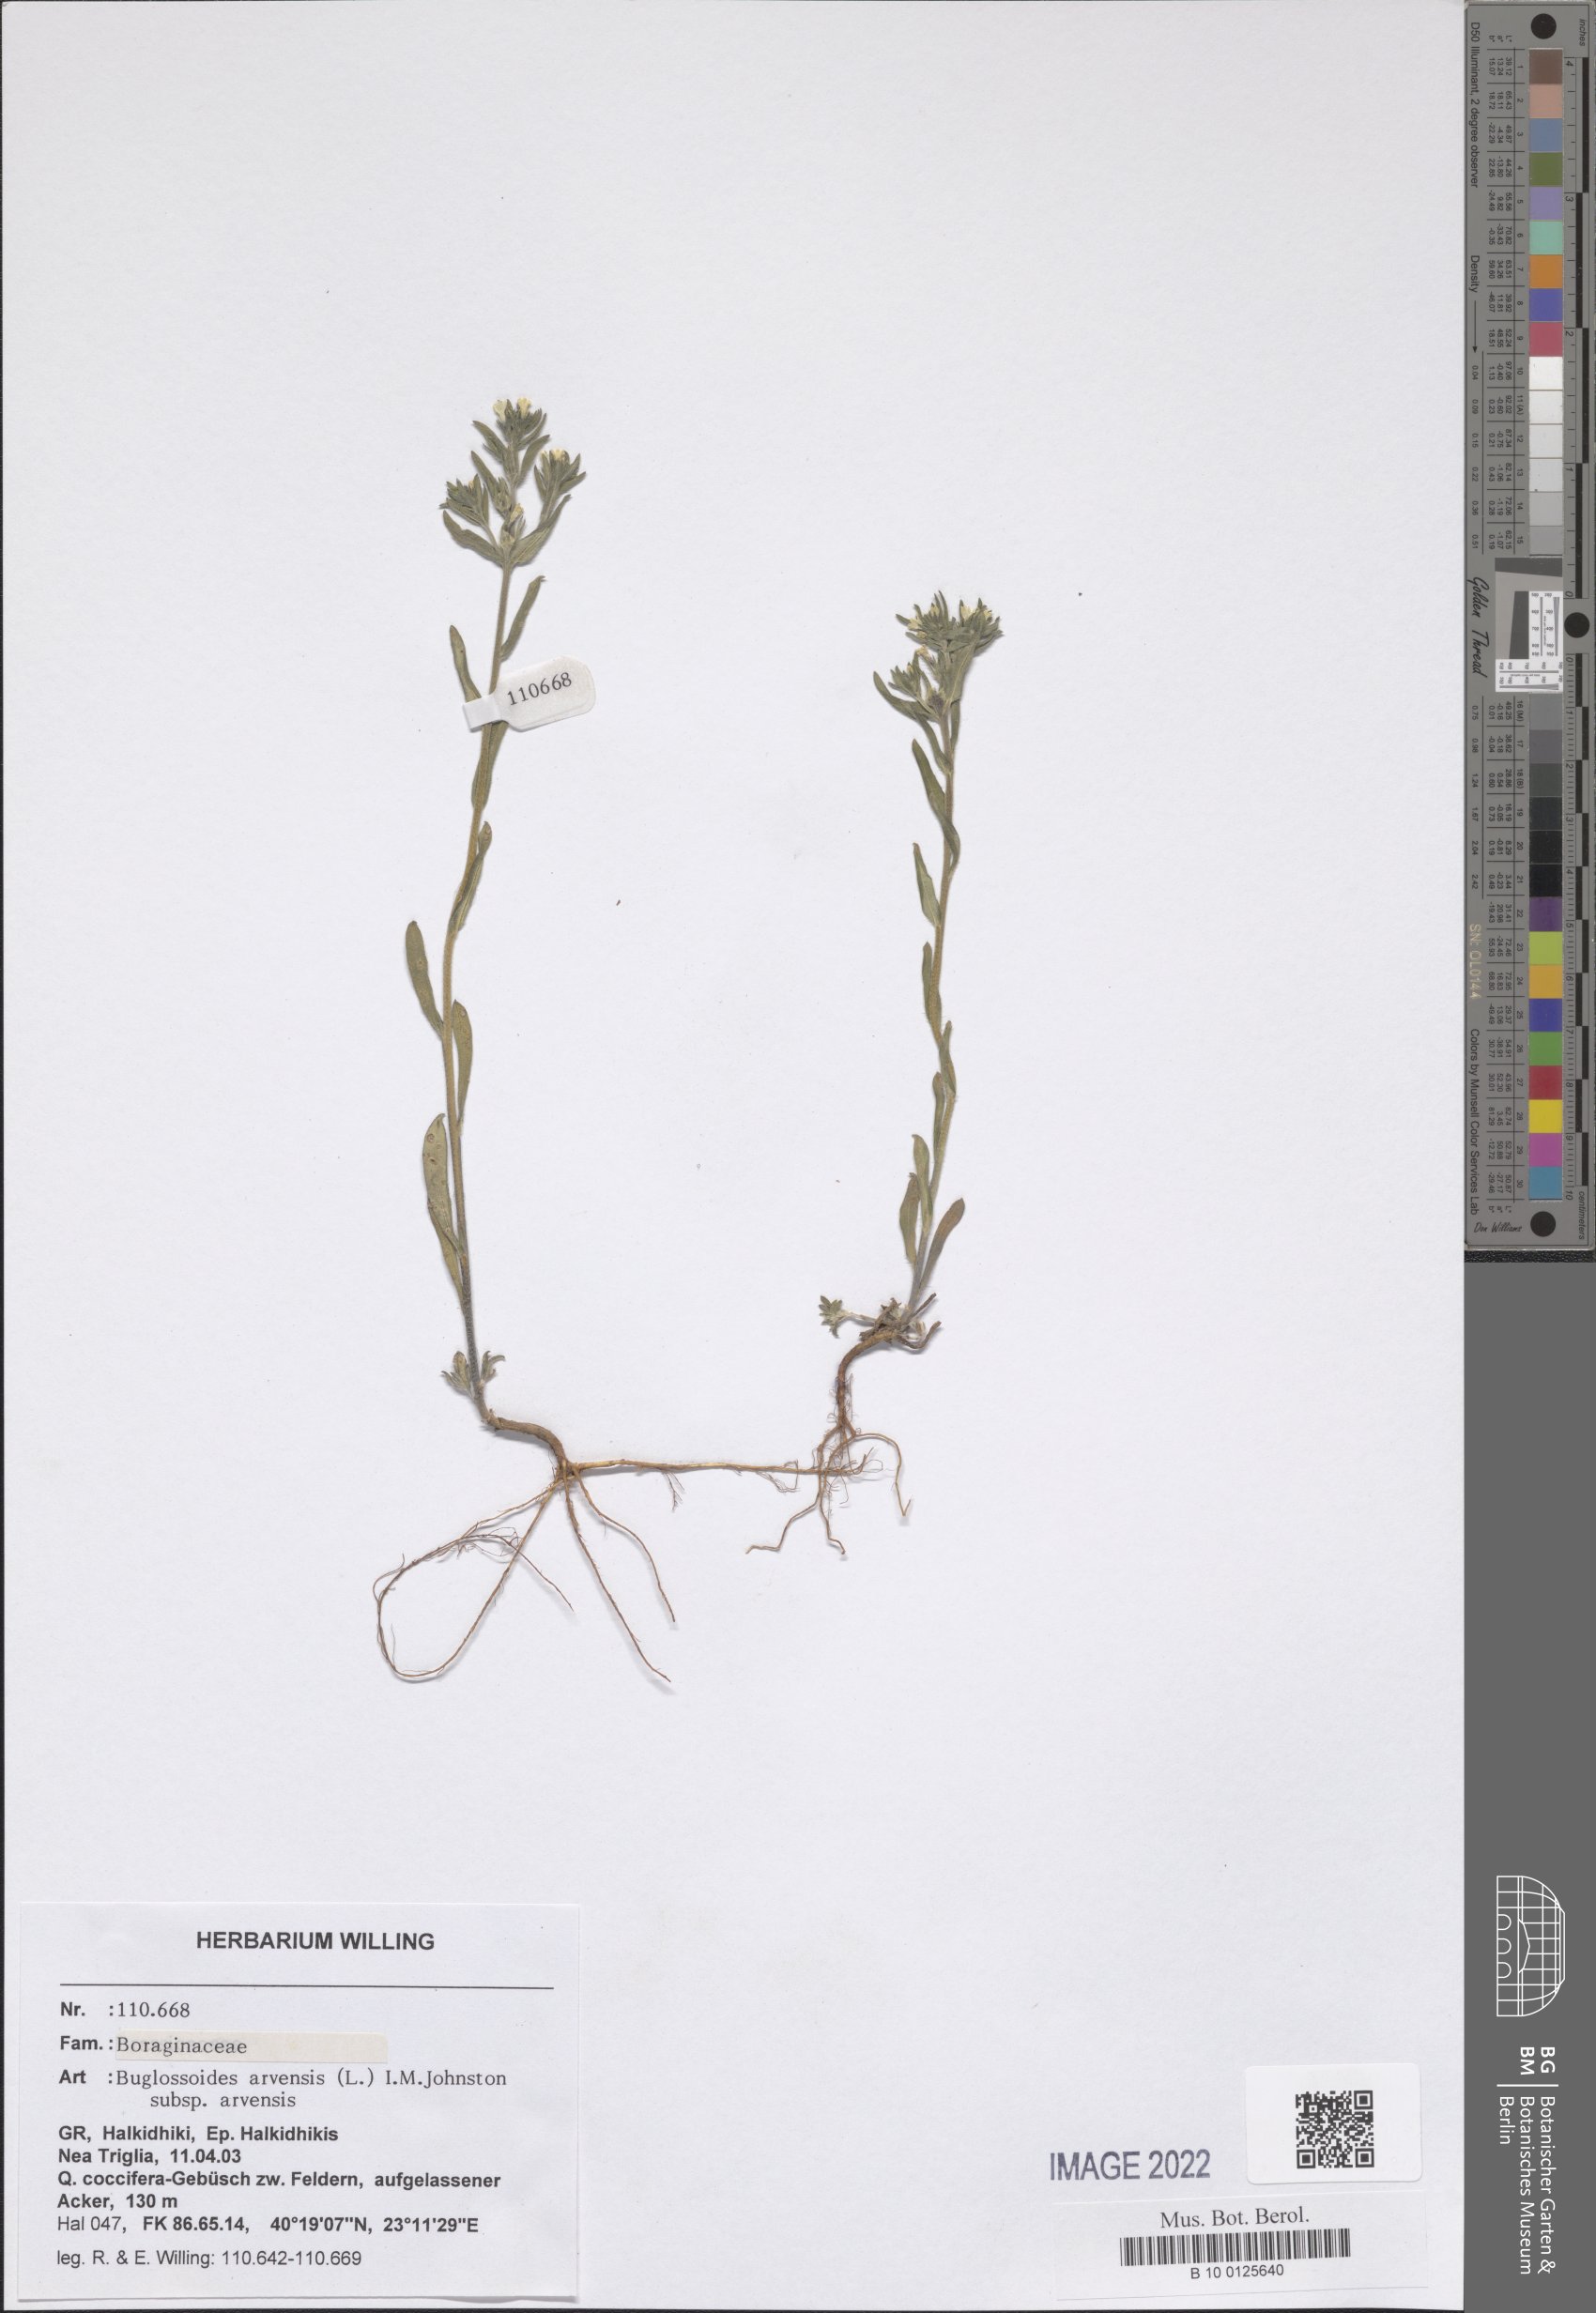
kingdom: Plantae
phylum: Tracheophyta
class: Magnoliopsida
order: Boraginales
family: Boraginaceae
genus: Buglossoides
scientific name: Buglossoides arvensis
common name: Corn gromwell
